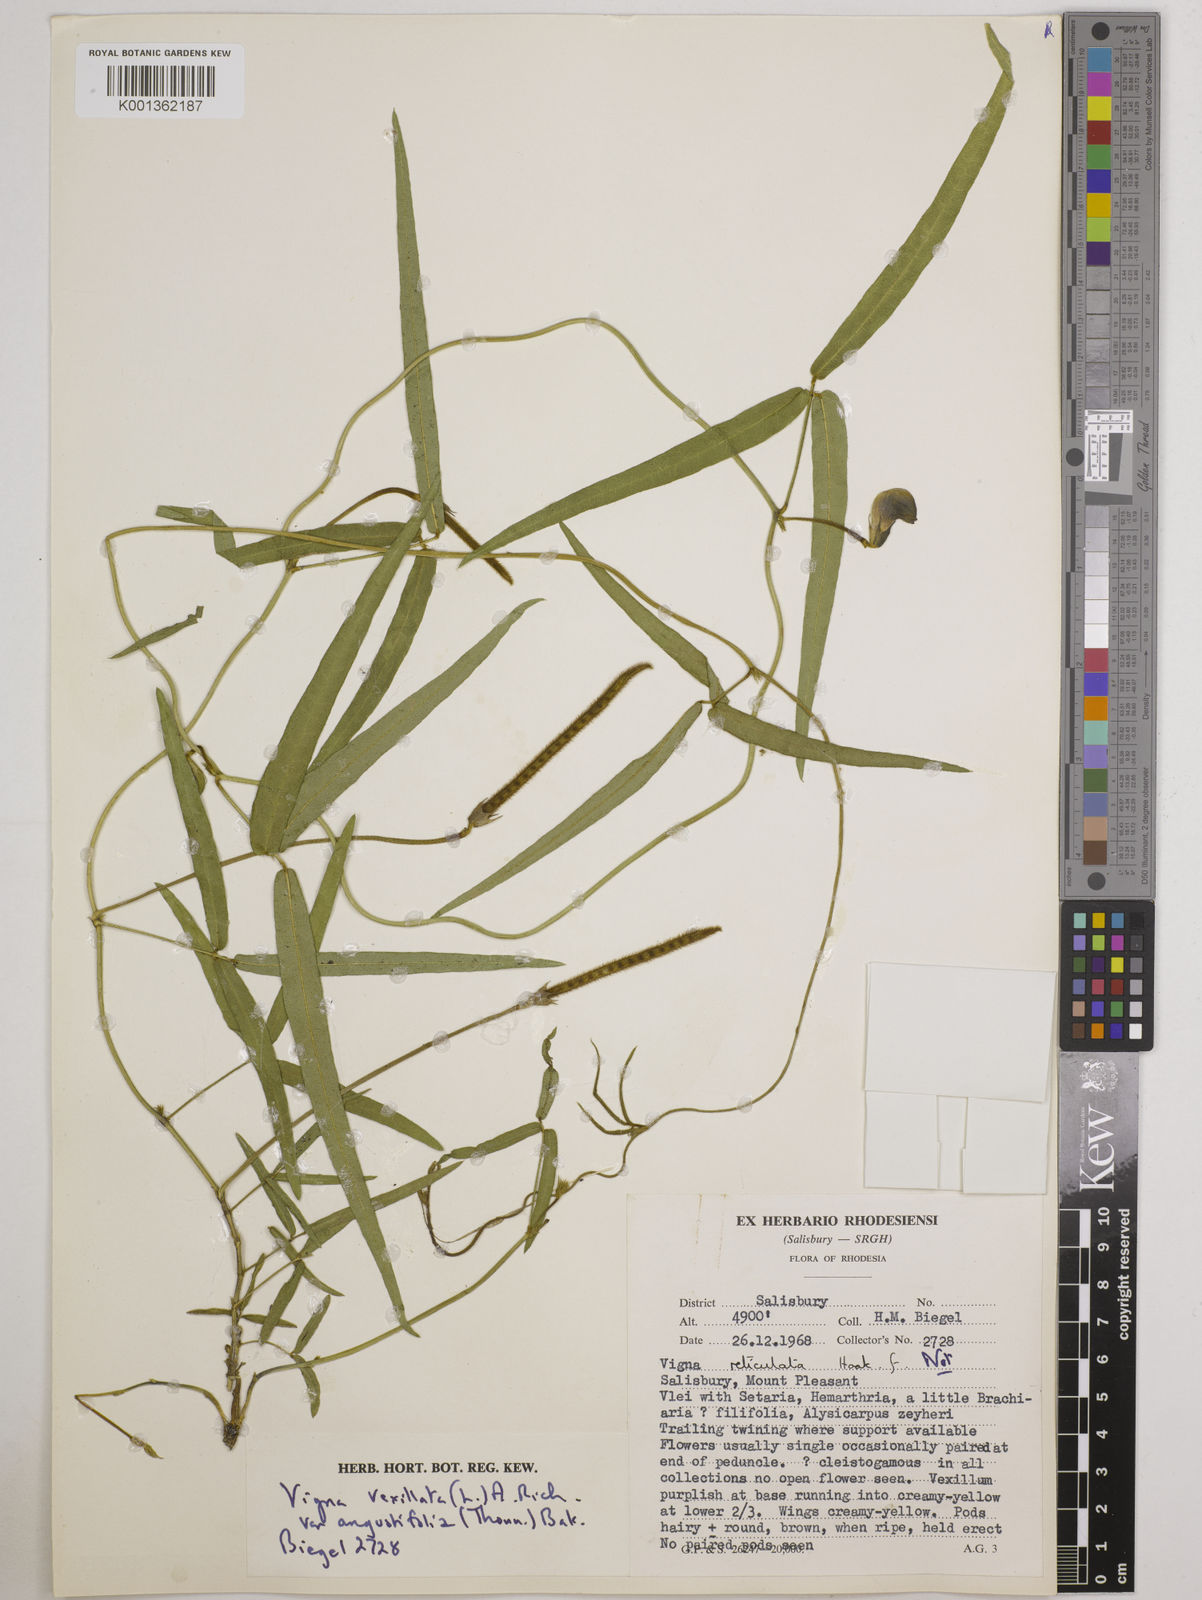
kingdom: Plantae
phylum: Tracheophyta
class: Magnoliopsida
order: Fabales
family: Fabaceae
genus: Vigna
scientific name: Vigna vexillata
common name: Zombi pea
